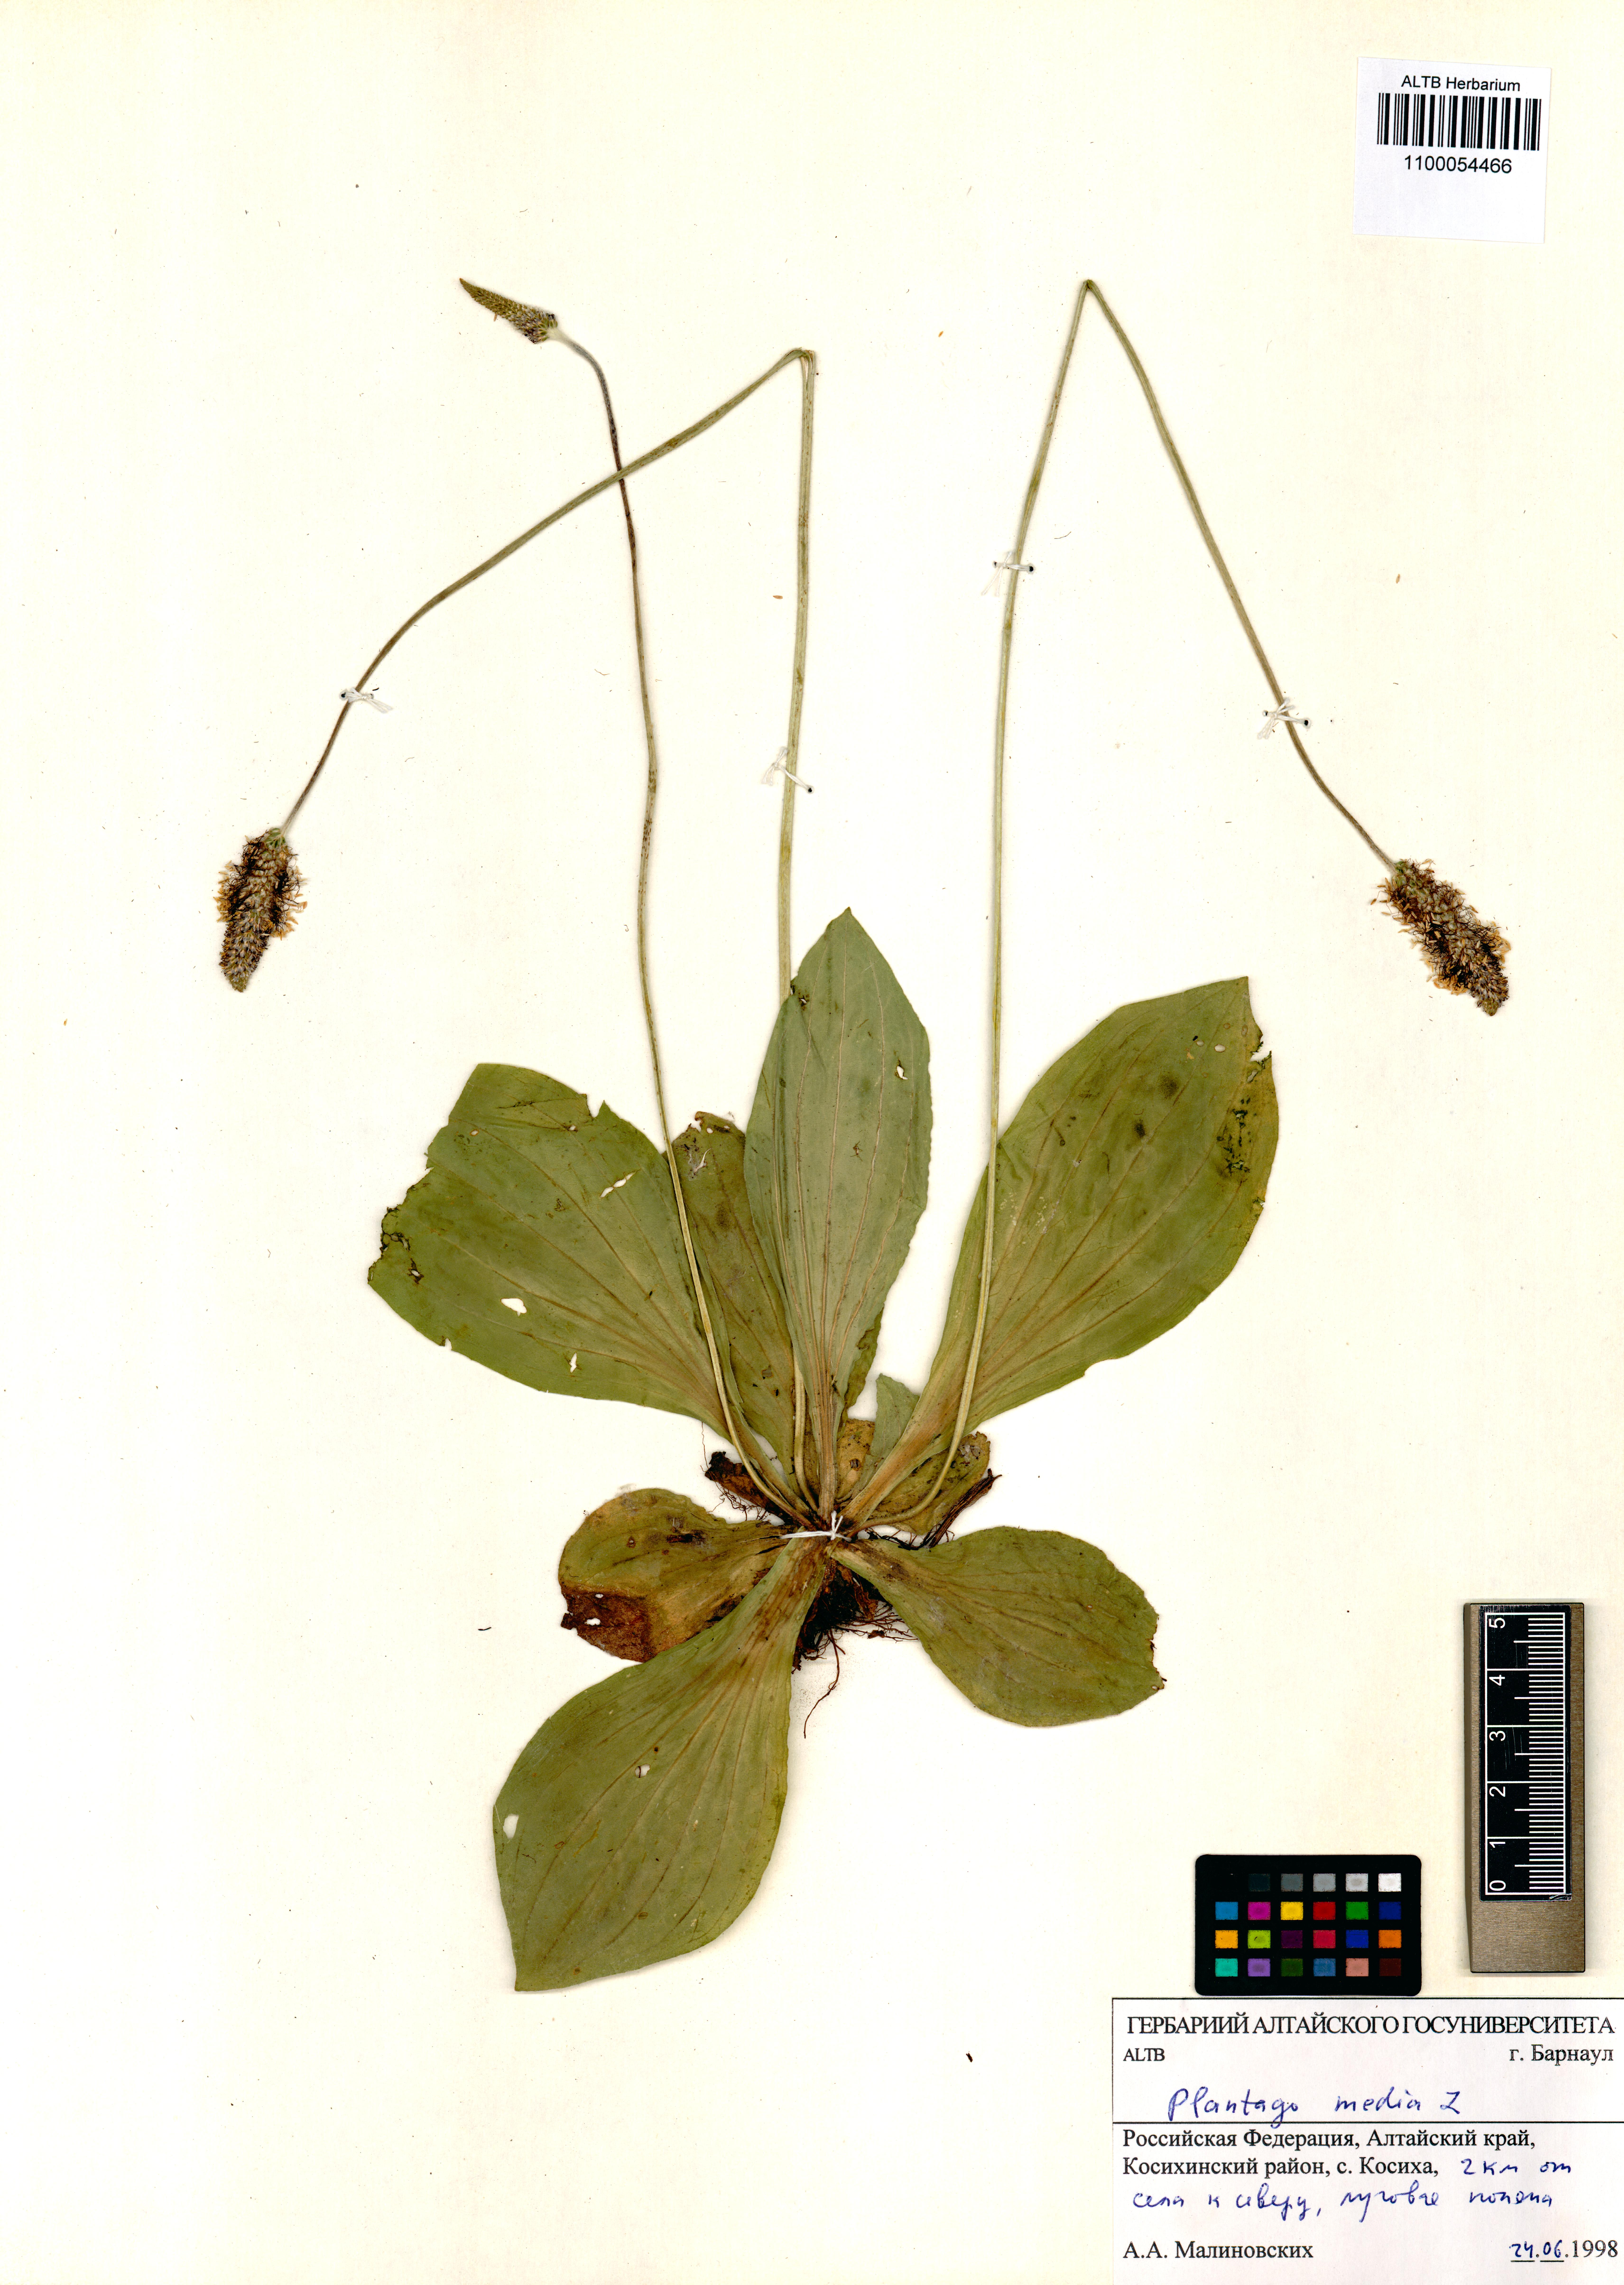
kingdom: Plantae
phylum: Tracheophyta
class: Magnoliopsida
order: Lamiales
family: Plantaginaceae
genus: Plantago
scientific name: Plantago media
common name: Hoary plantain
